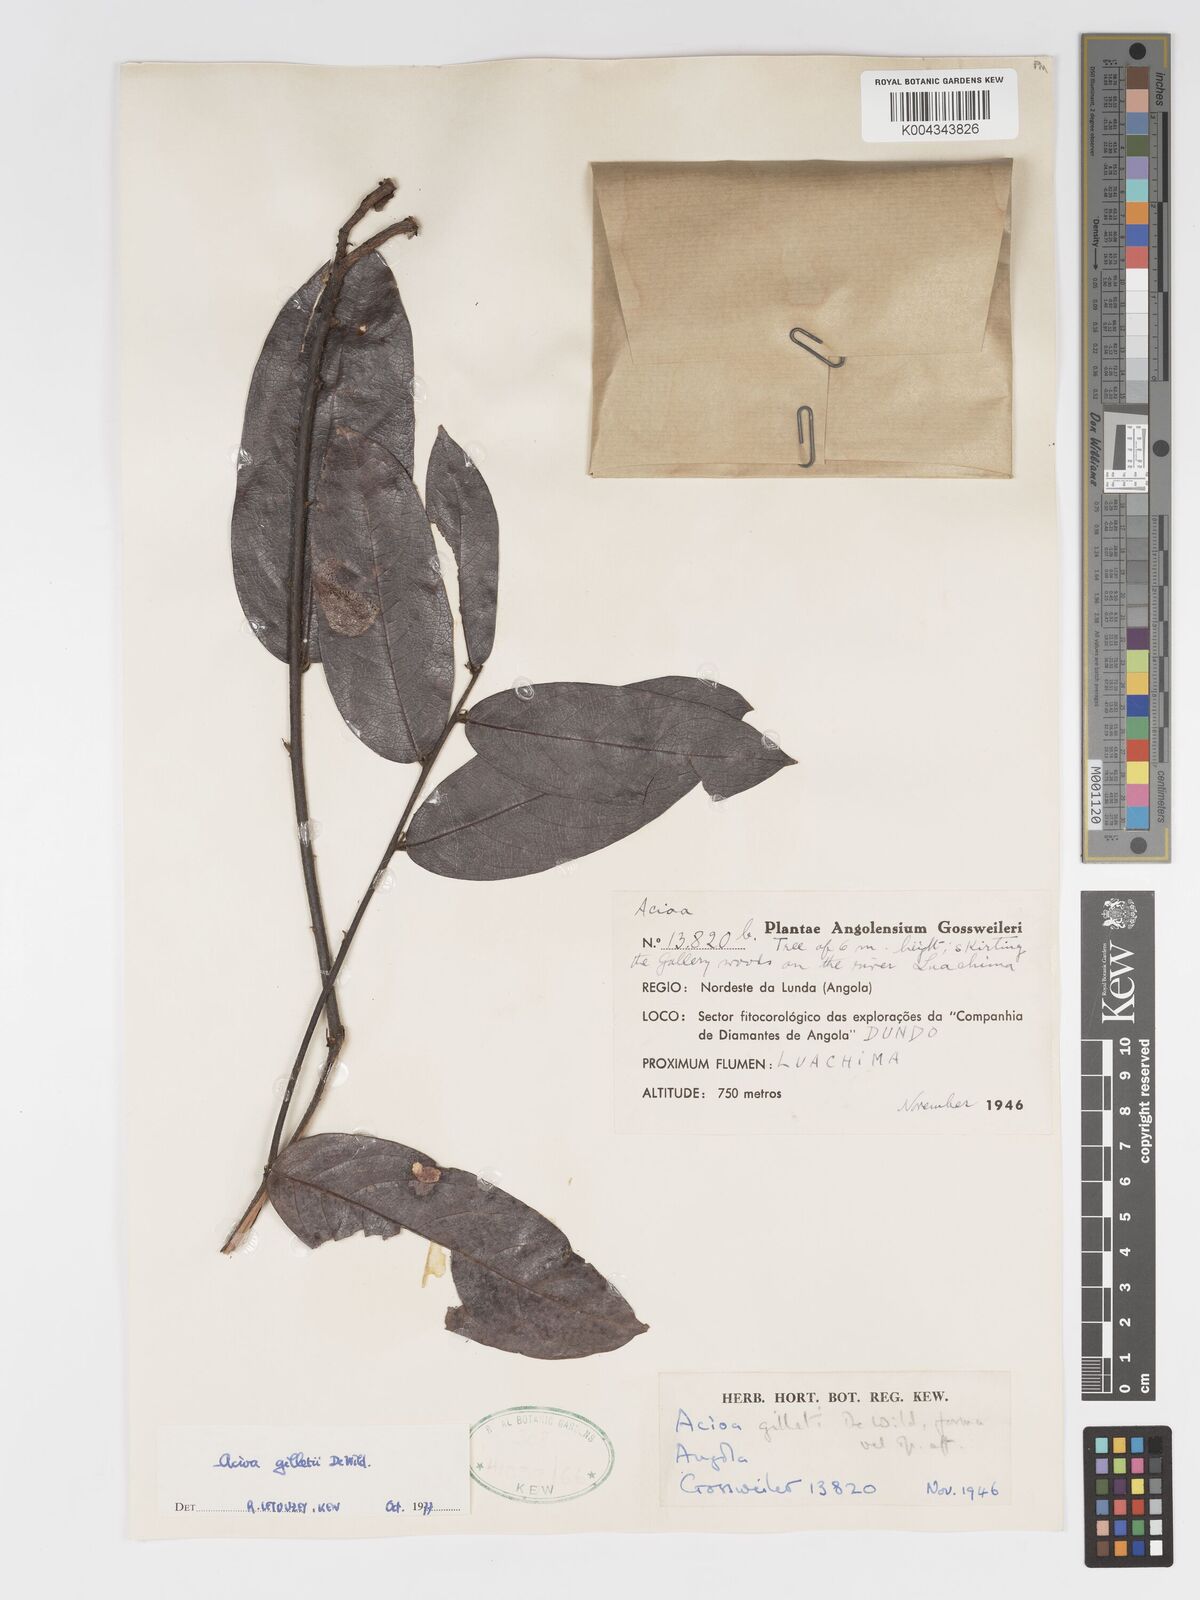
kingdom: Plantae
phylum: Tracheophyta
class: Magnoliopsida
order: Malpighiales
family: Chrysobalanaceae
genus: Dactyladenia
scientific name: Dactyladenia gilletii
